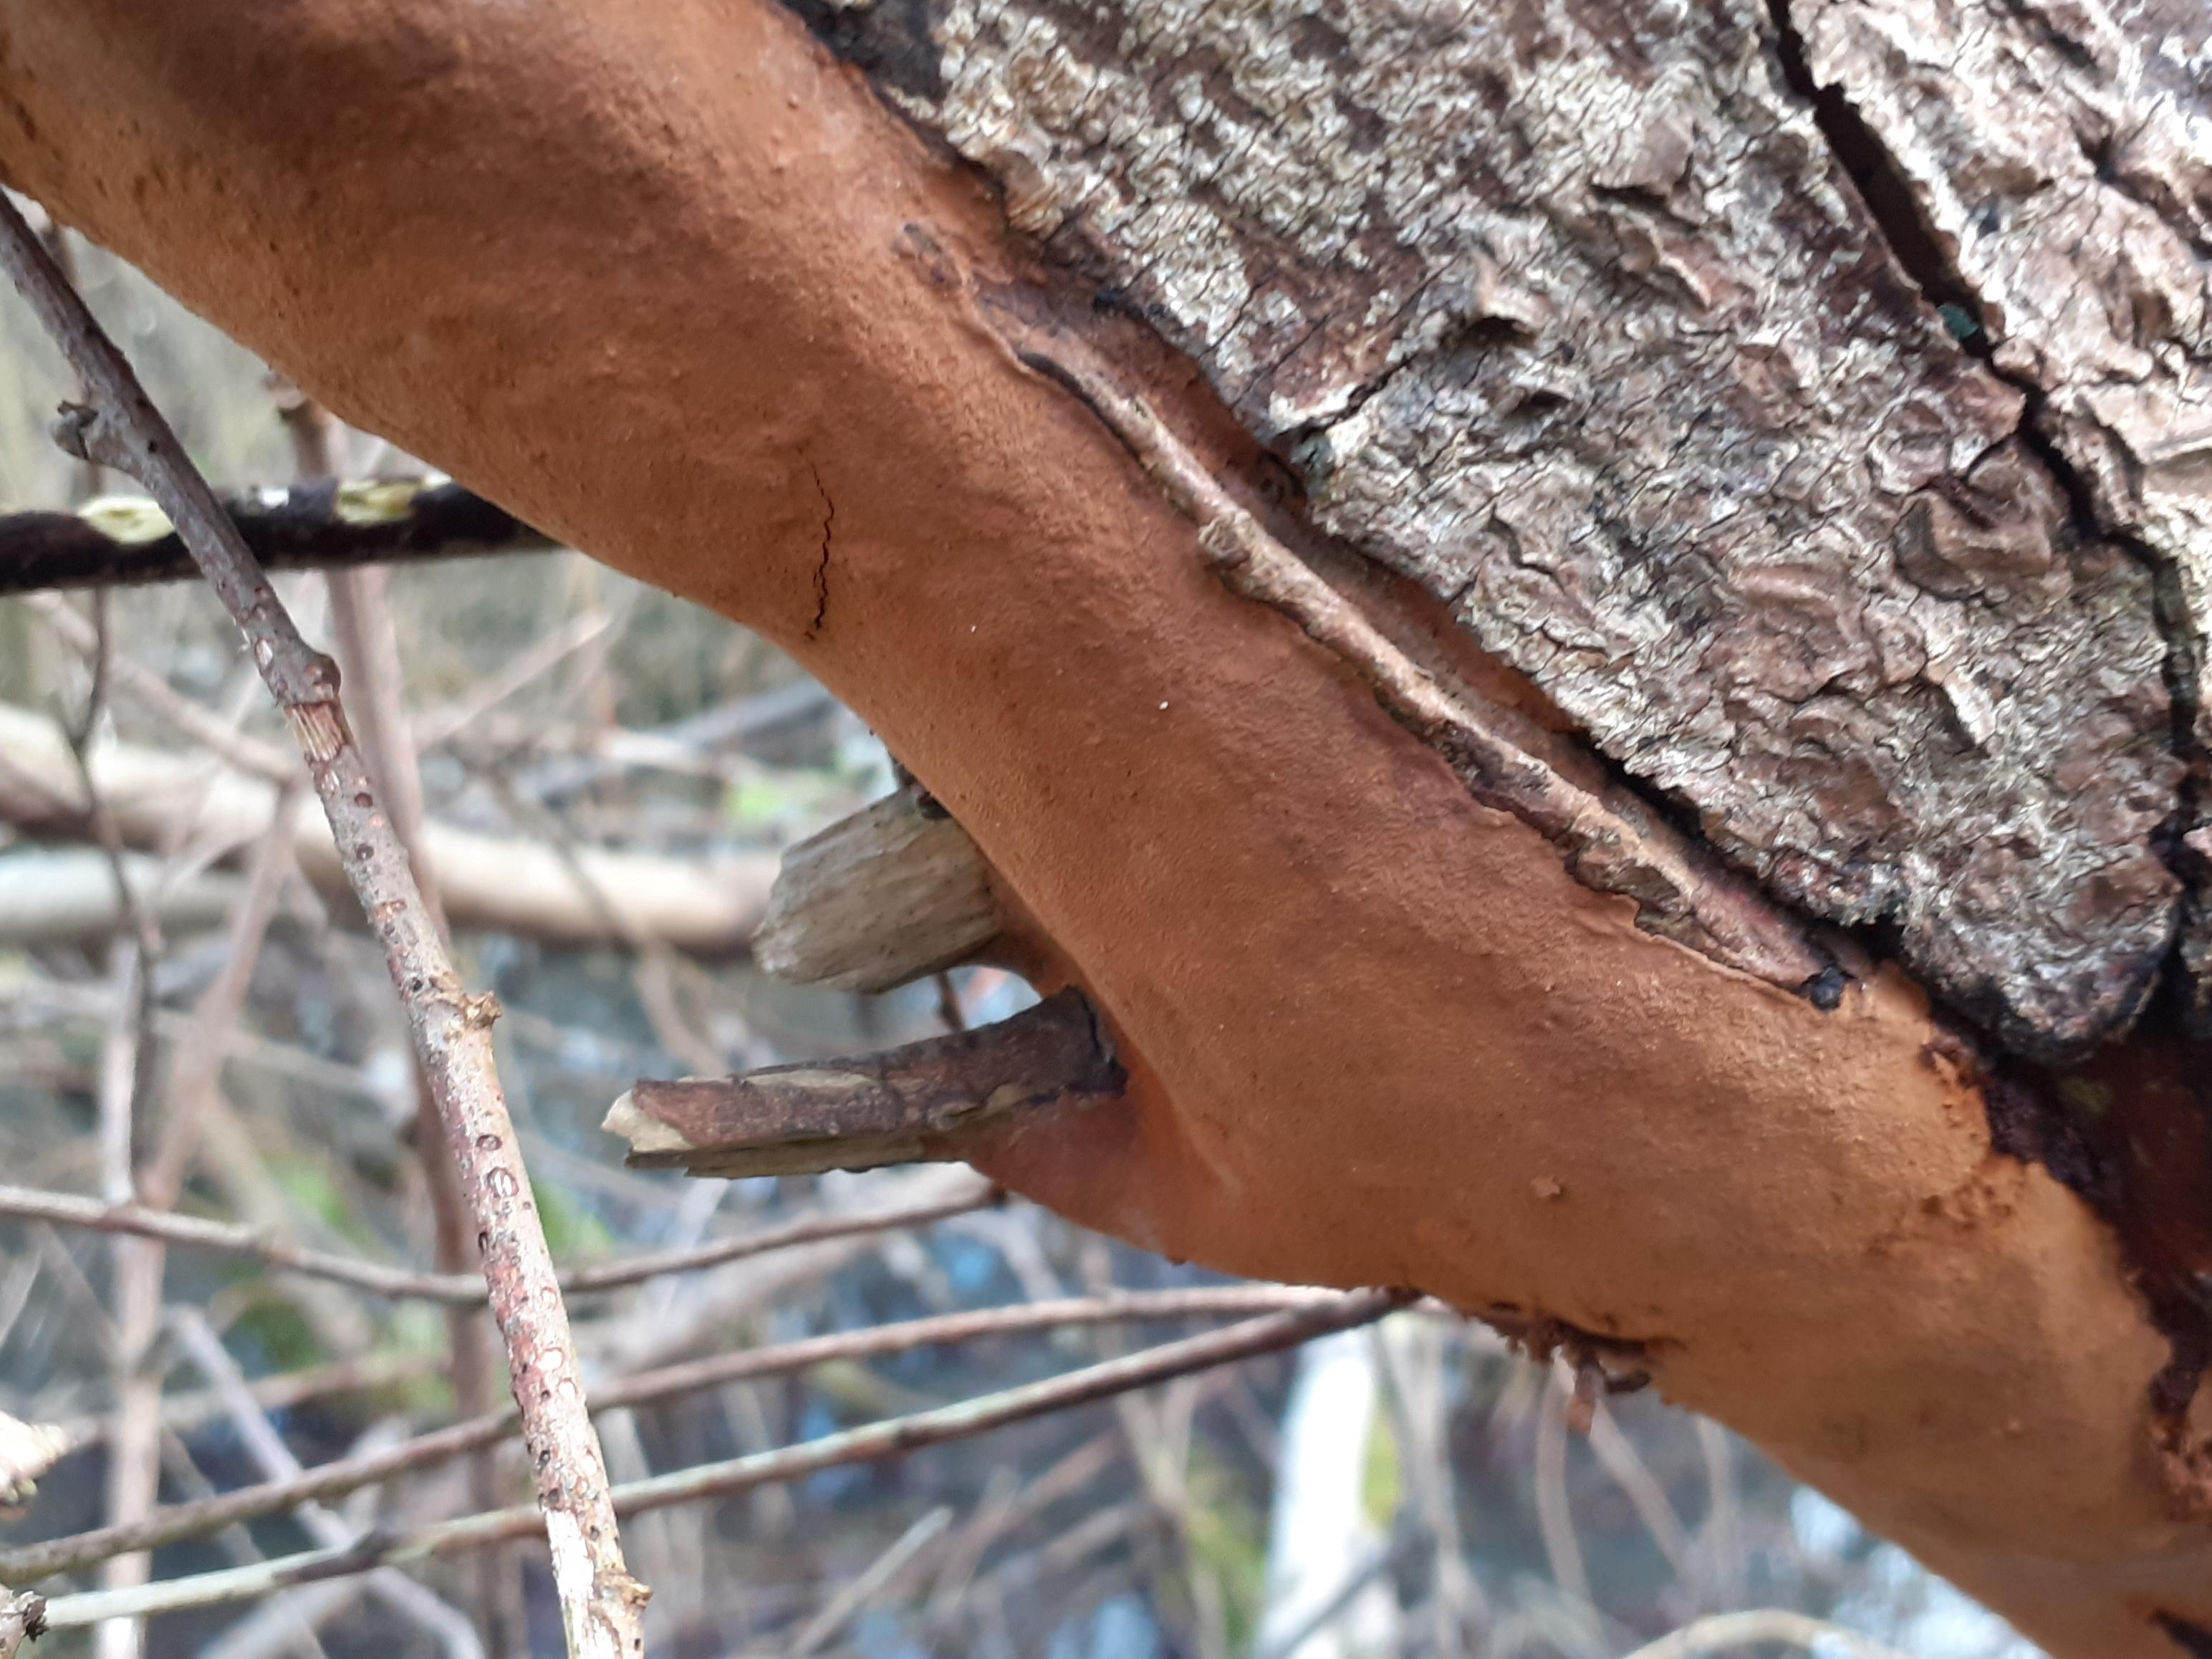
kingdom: Fungi
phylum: Basidiomycota
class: Agaricomycetes
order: Hymenochaetales
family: Hymenochaetaceae
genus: Fomitiporia
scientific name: Fomitiporia punctata
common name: pude-ildporesvamp
